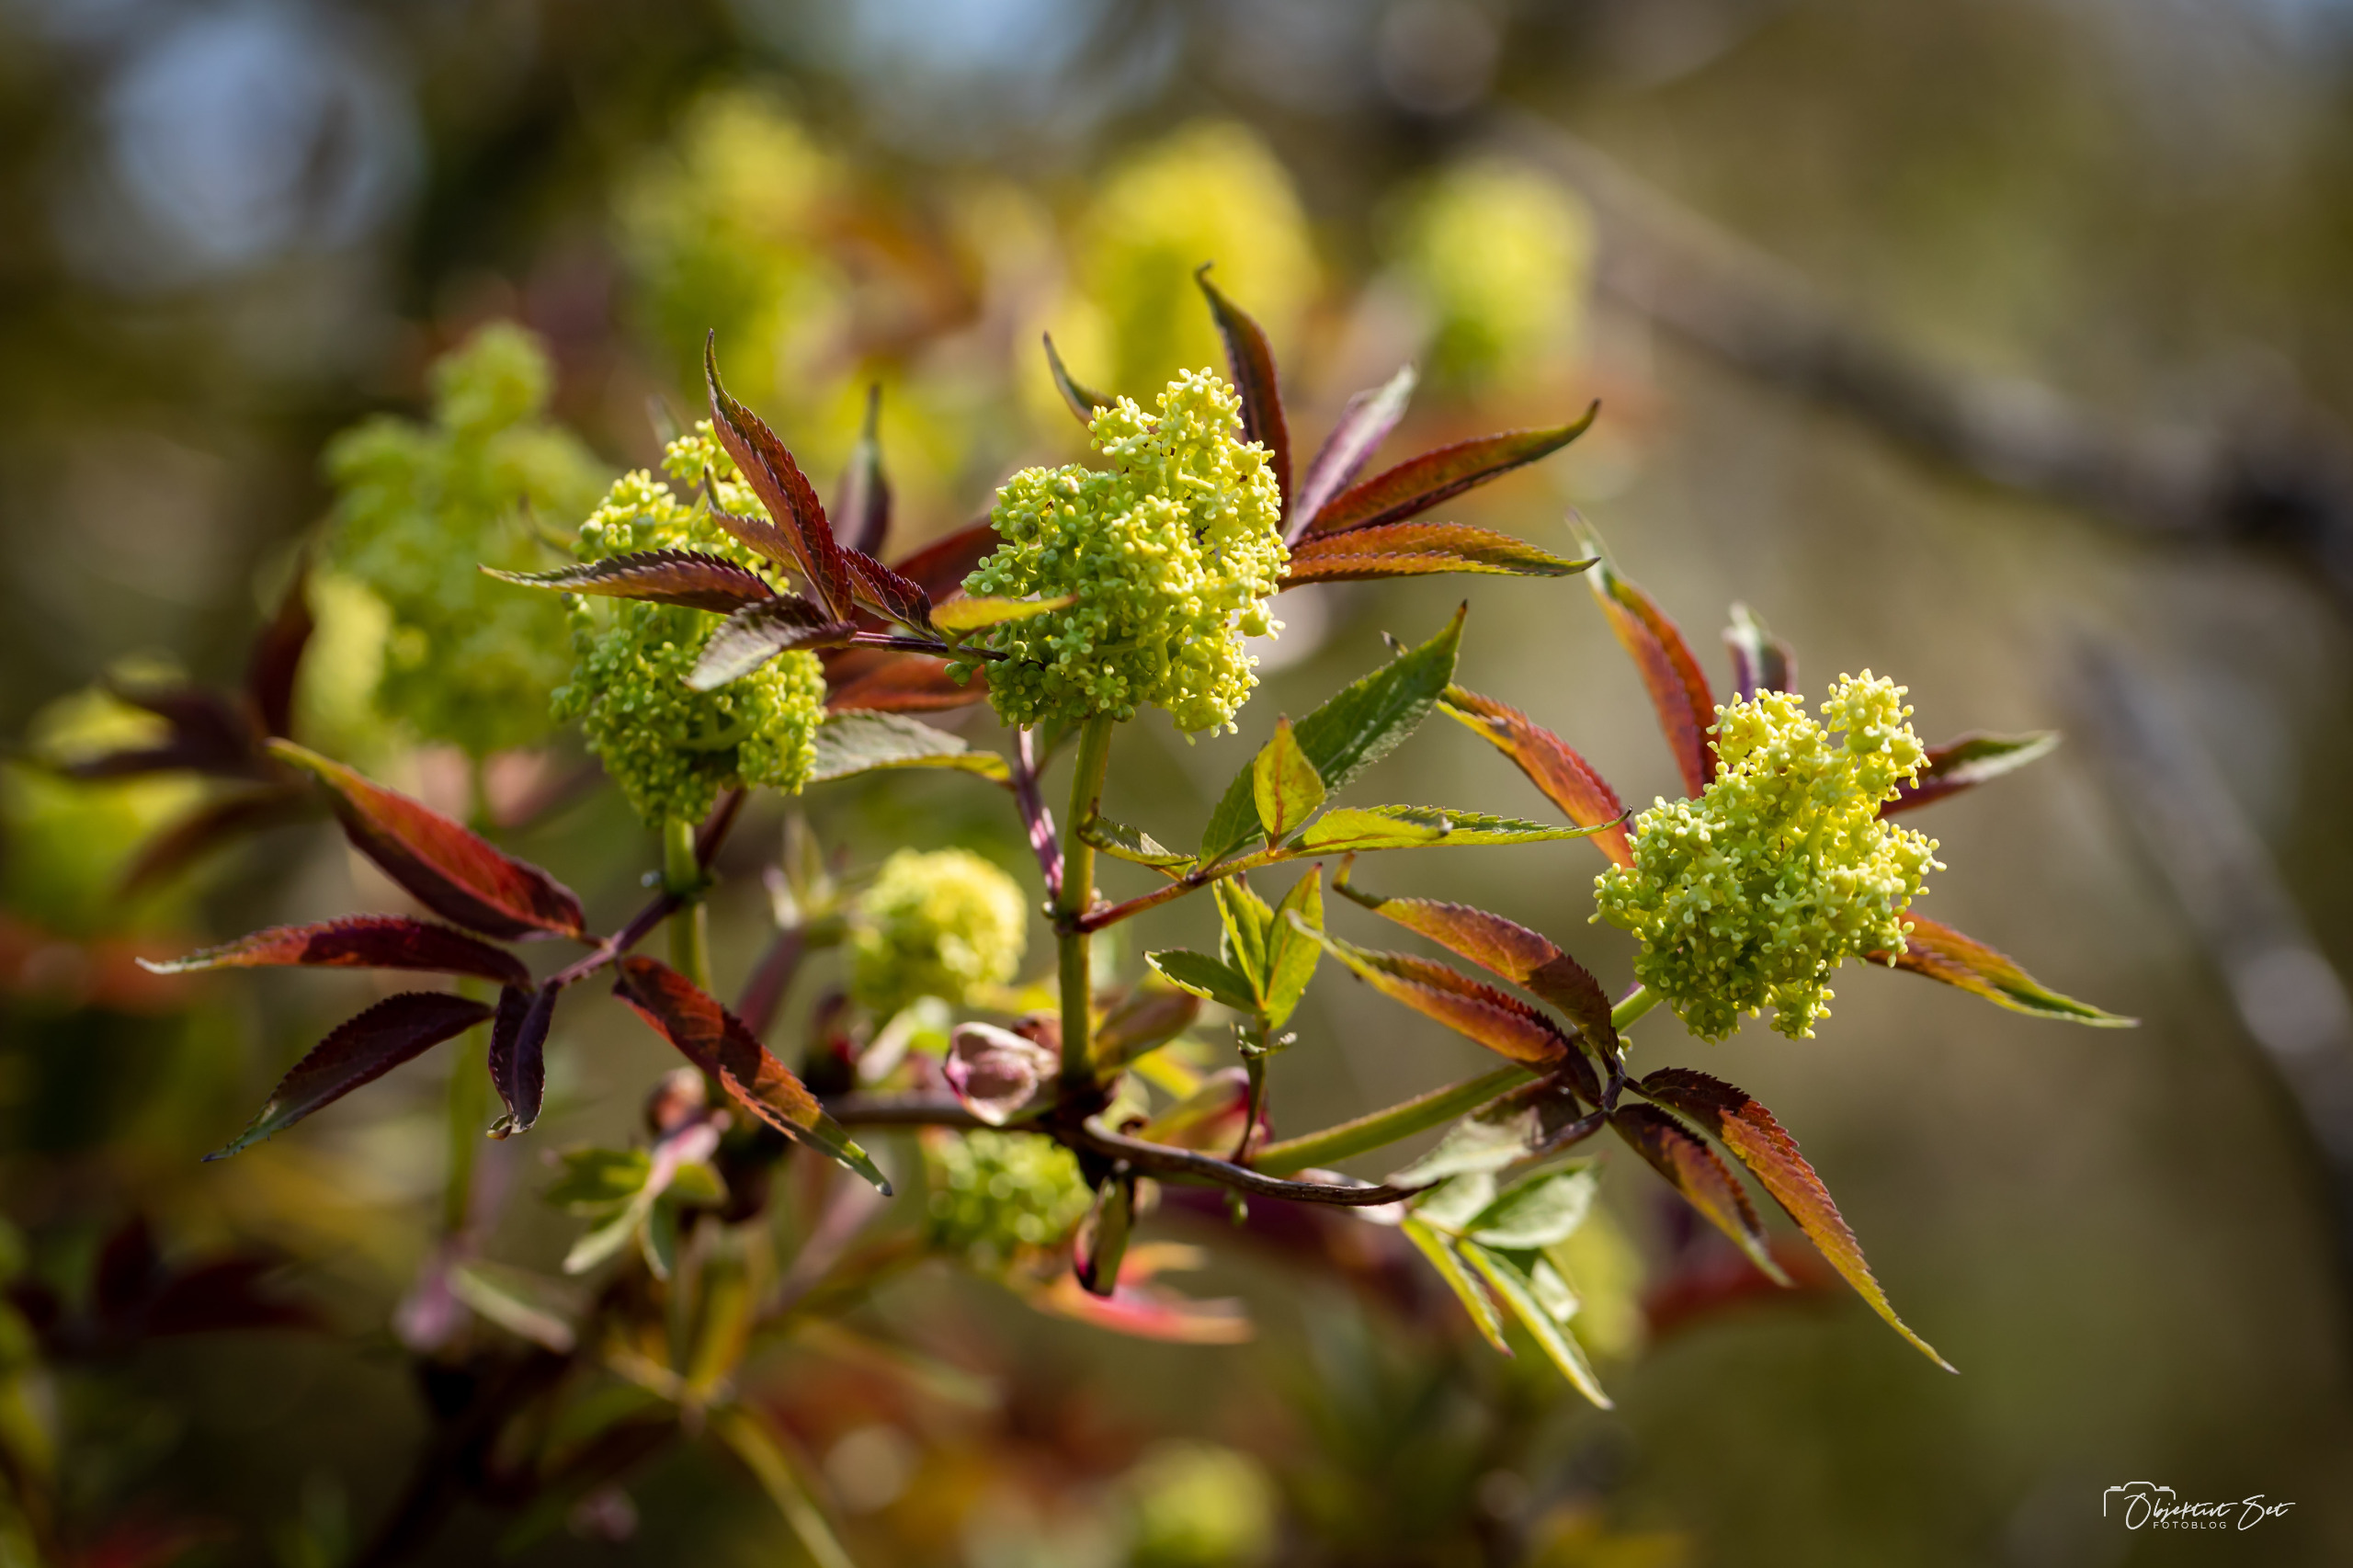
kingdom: Plantae
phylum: Tracheophyta
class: Magnoliopsida
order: Dipsacales
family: Viburnaceae
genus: Sambucus
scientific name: Sambucus racemosa
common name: Drue-hyld
